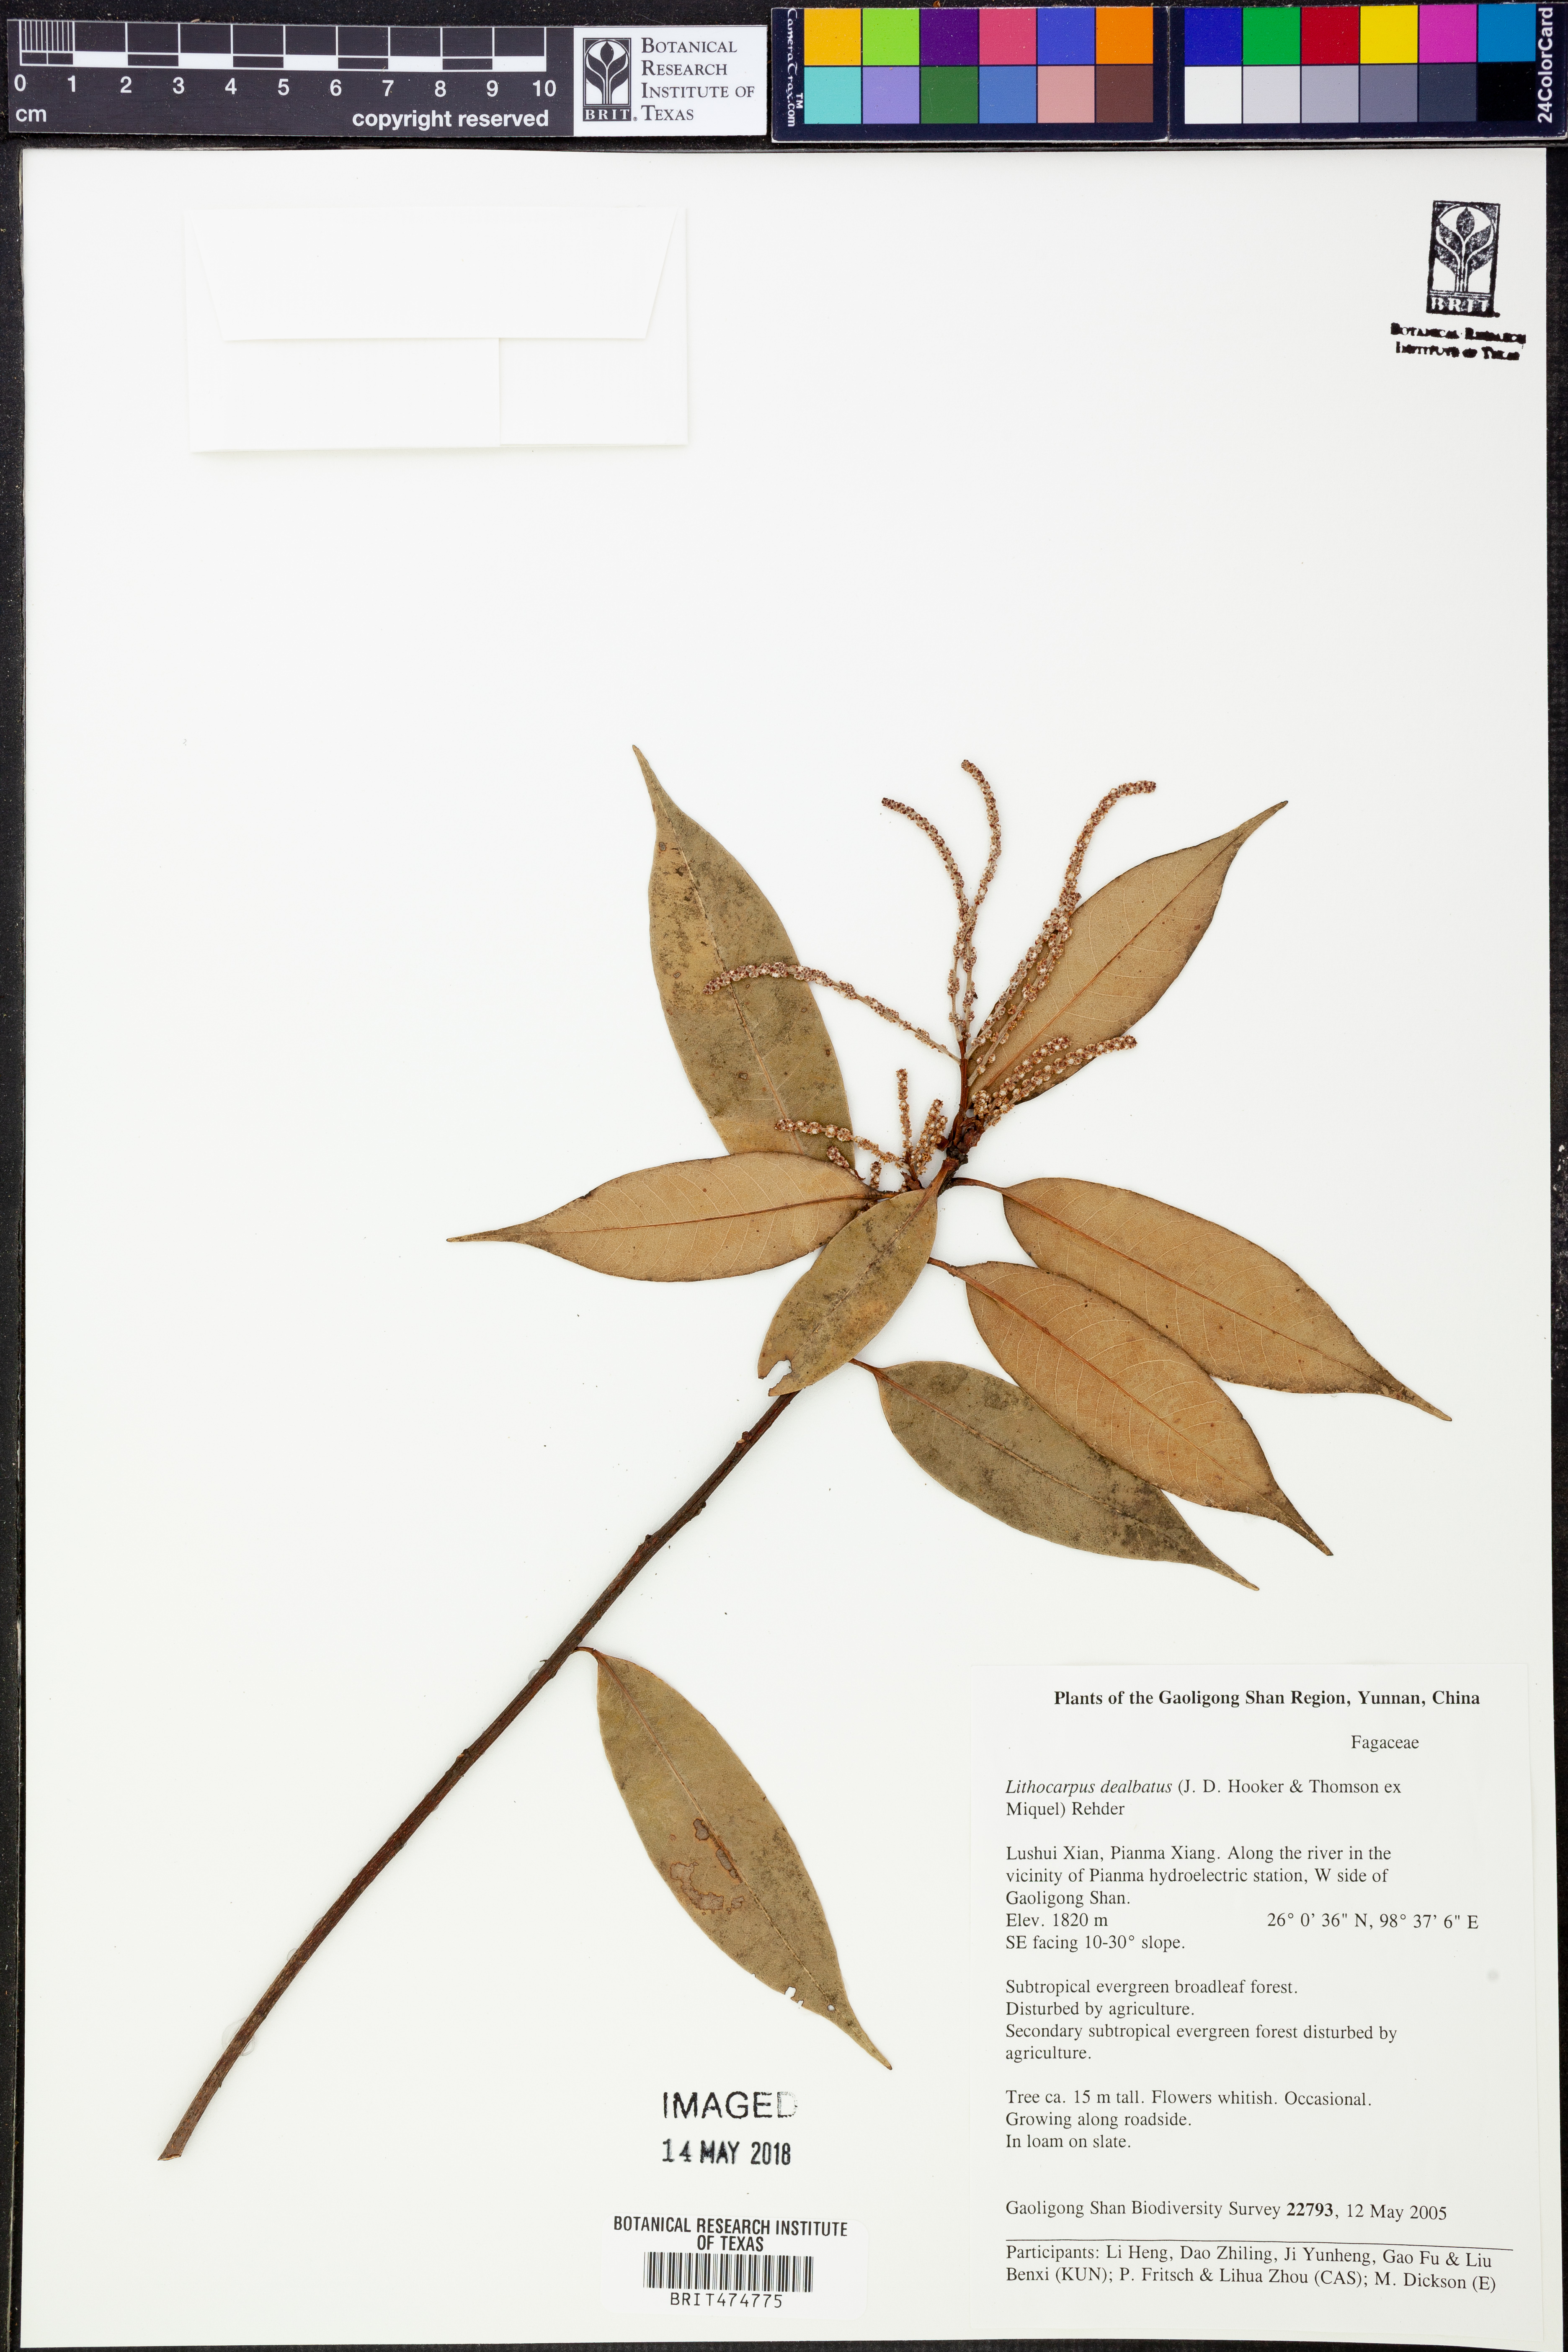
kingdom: Plantae
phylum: Tracheophyta
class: Magnoliopsida
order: Fagales
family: Fagaceae
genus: Lithocarpus
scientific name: Lithocarpus dealbatus
